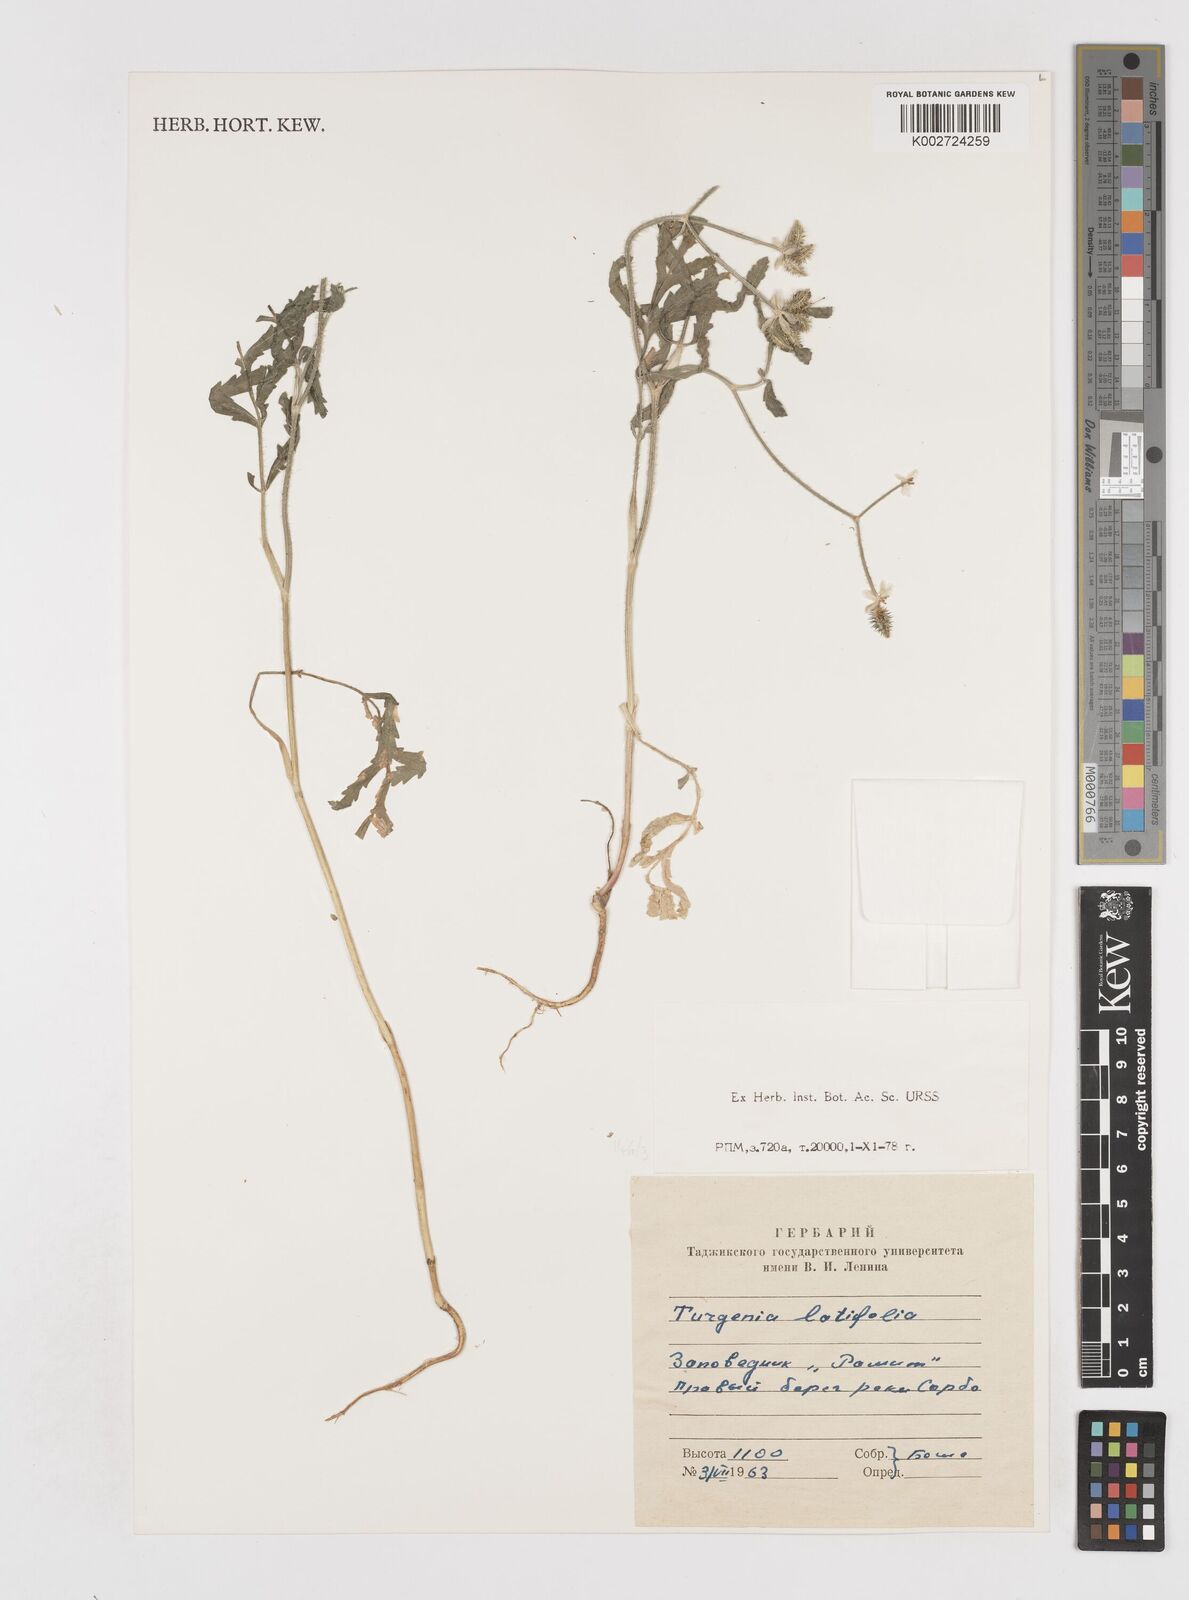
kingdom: Plantae
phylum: Tracheophyta
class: Magnoliopsida
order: Apiales
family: Apiaceae
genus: Turgenia
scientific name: Turgenia latifolia
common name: Greater bur-parsley
